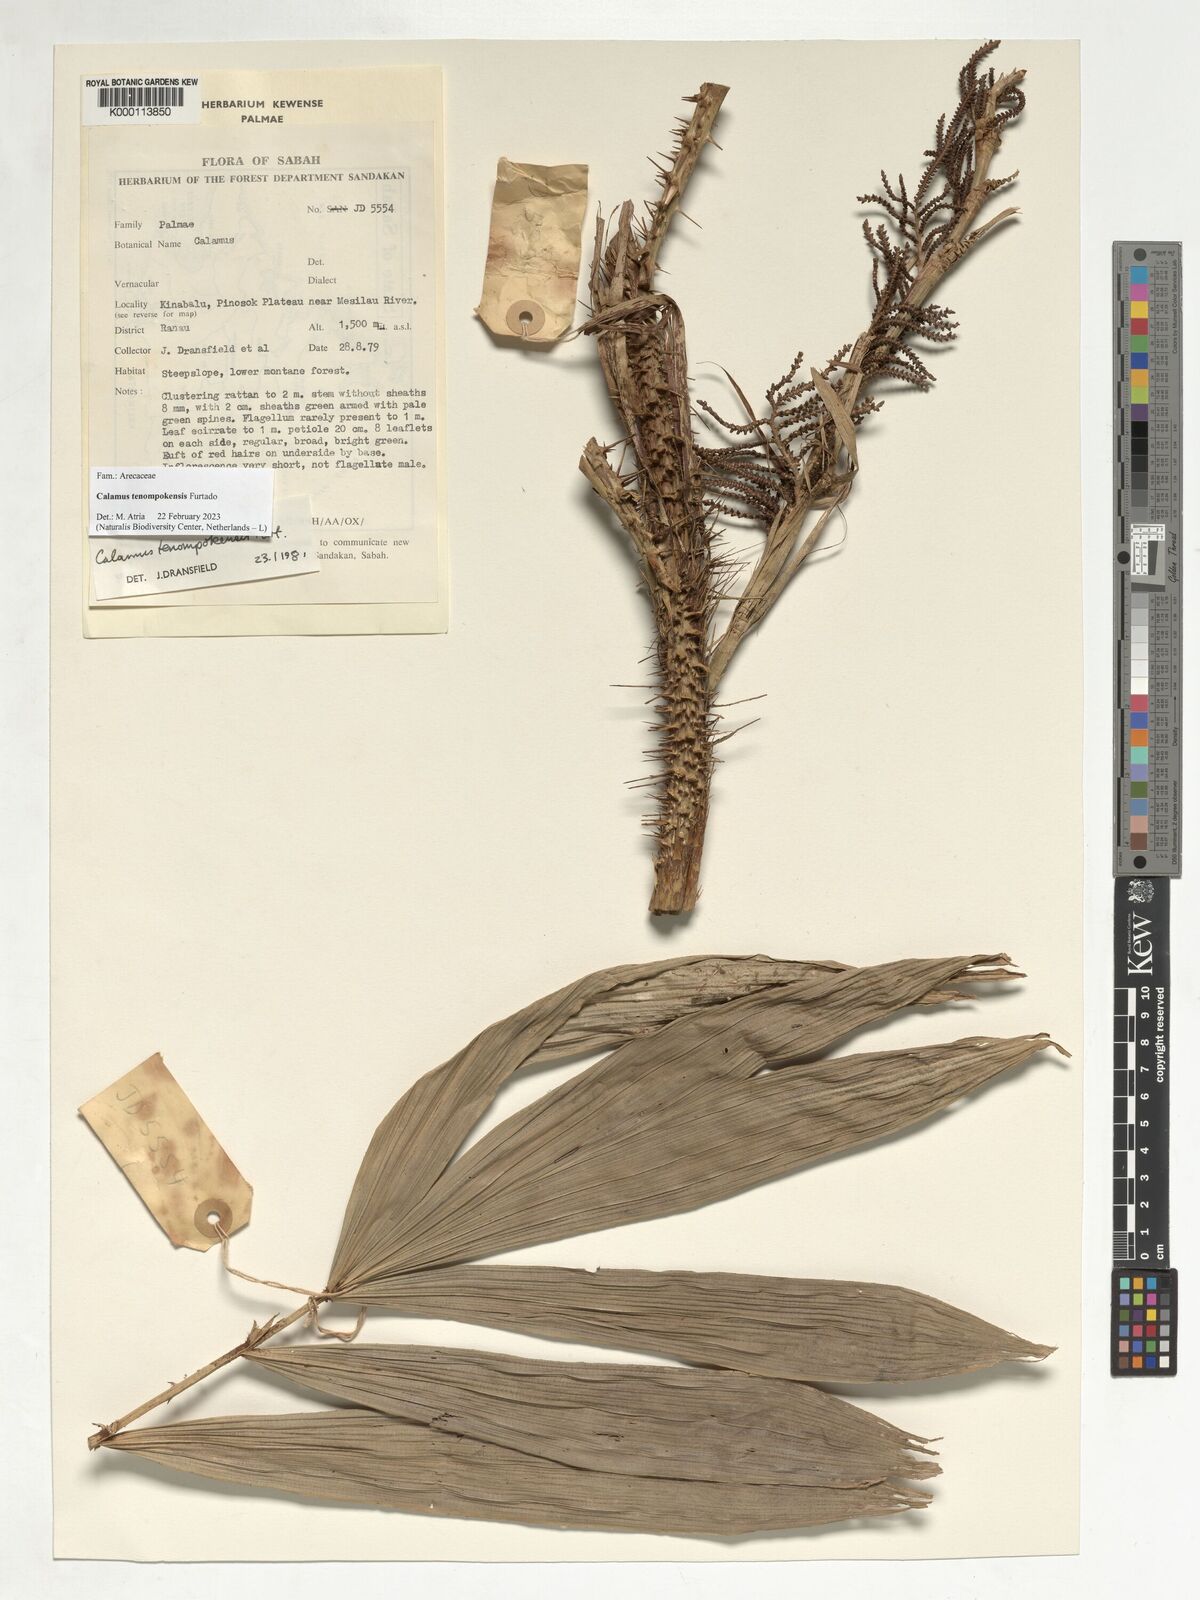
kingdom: Plantae
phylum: Tracheophyta
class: Liliopsida
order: Arecales
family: Arecaceae
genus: Calamus
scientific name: Calamus tenompokensis
